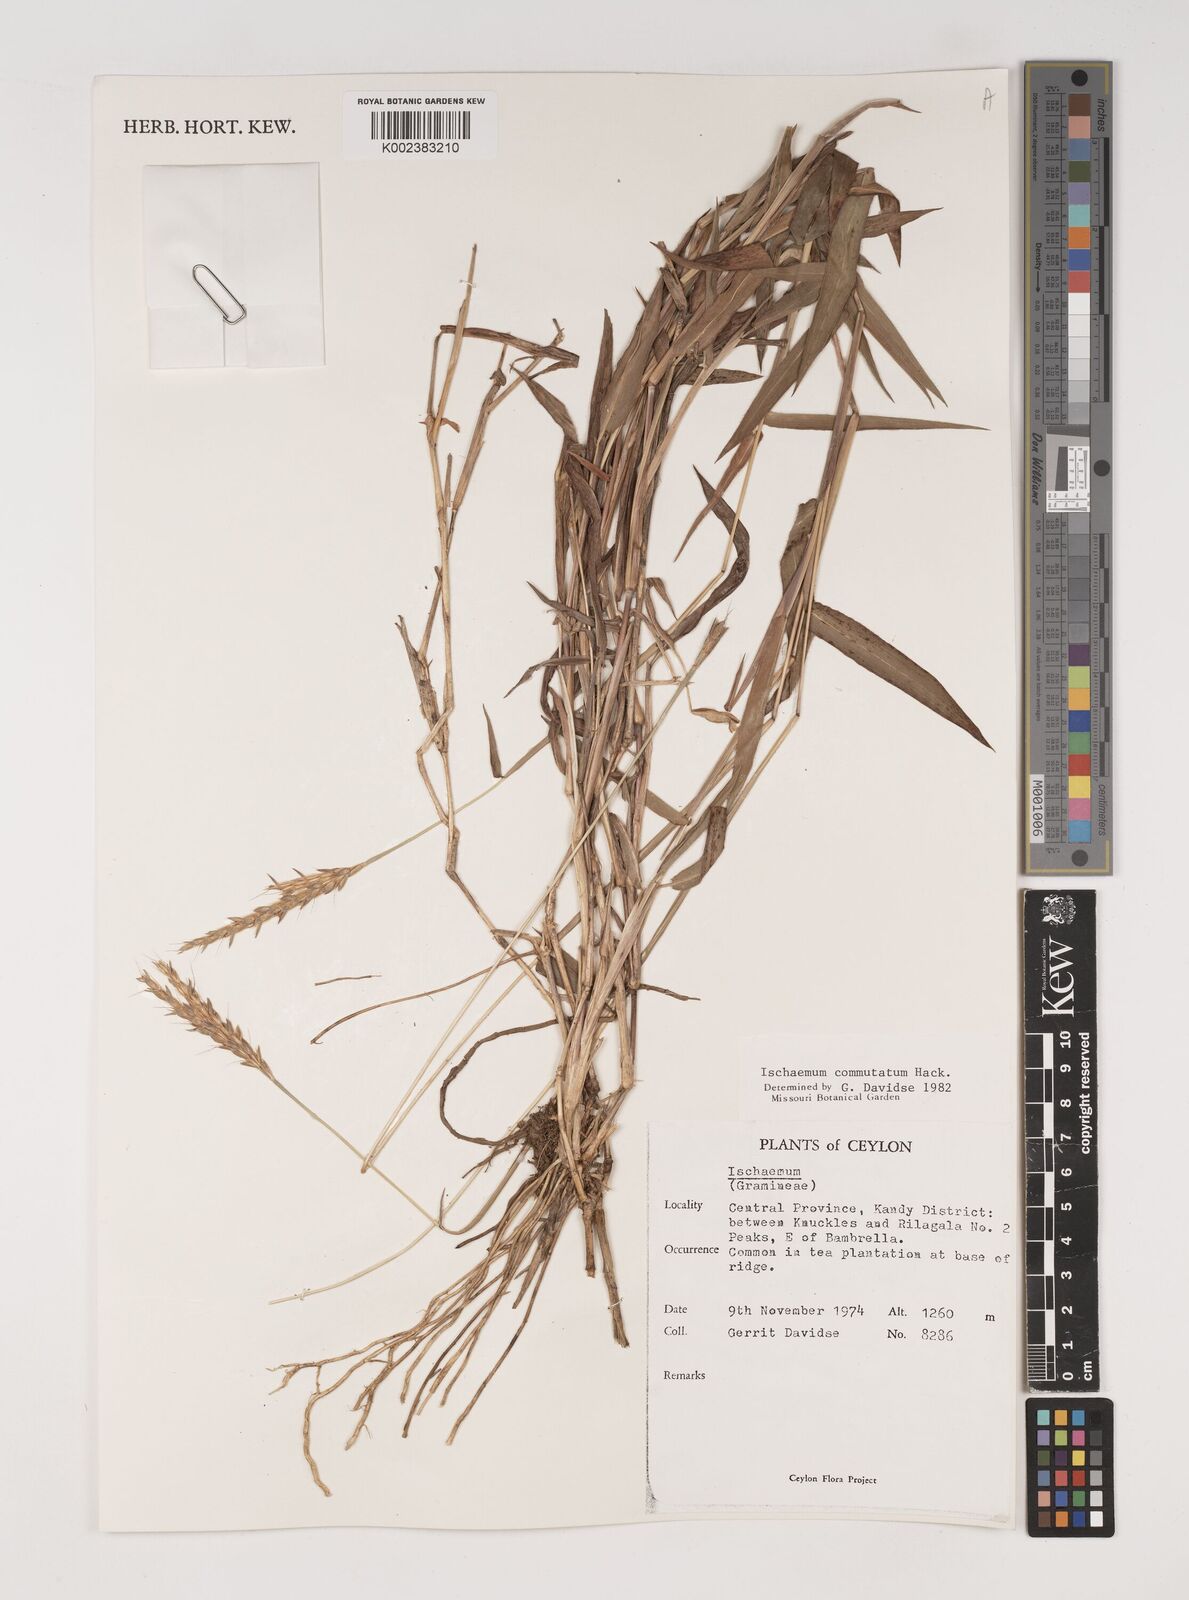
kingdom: Plantae
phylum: Tracheophyta
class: Liliopsida
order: Poales
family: Poaceae
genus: Ischaemum
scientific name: Ischaemum commutatum
